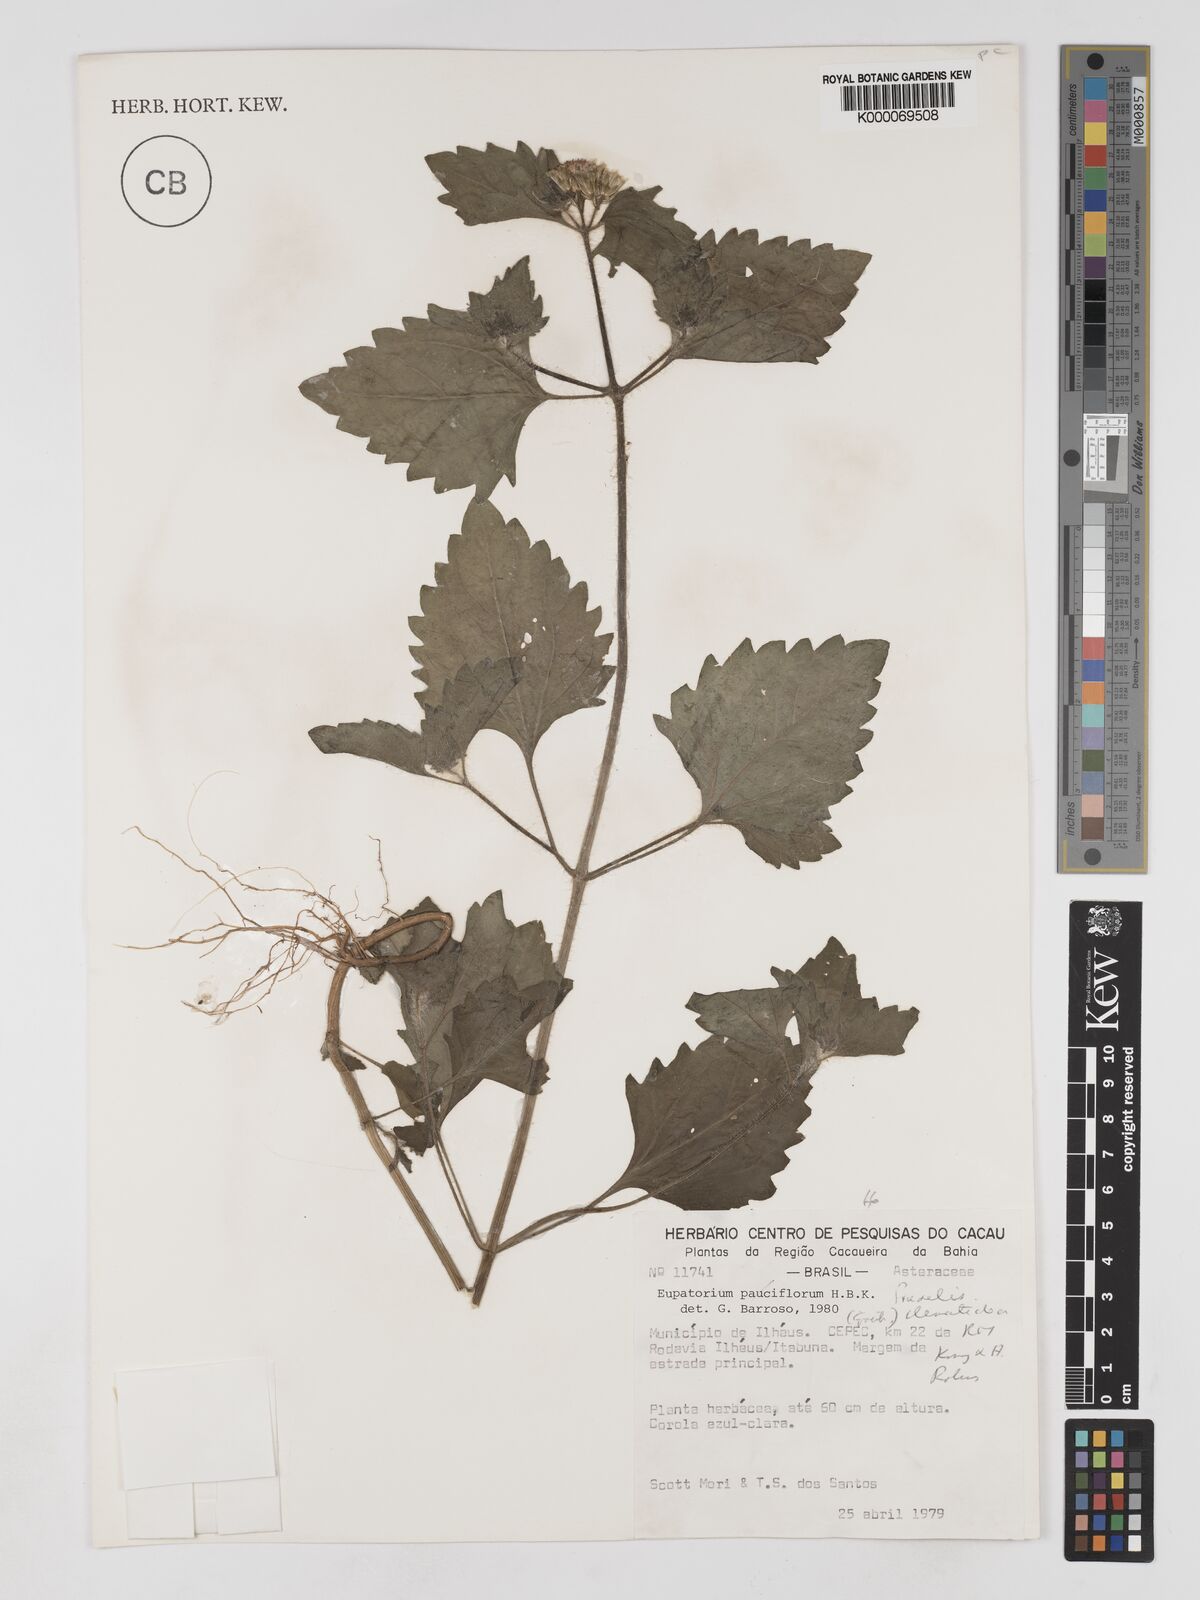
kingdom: Plantae
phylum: Tracheophyta
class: Magnoliopsida
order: Asterales
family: Asteraceae
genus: Praxelis
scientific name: Praxelis clematidea
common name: Praxelis
